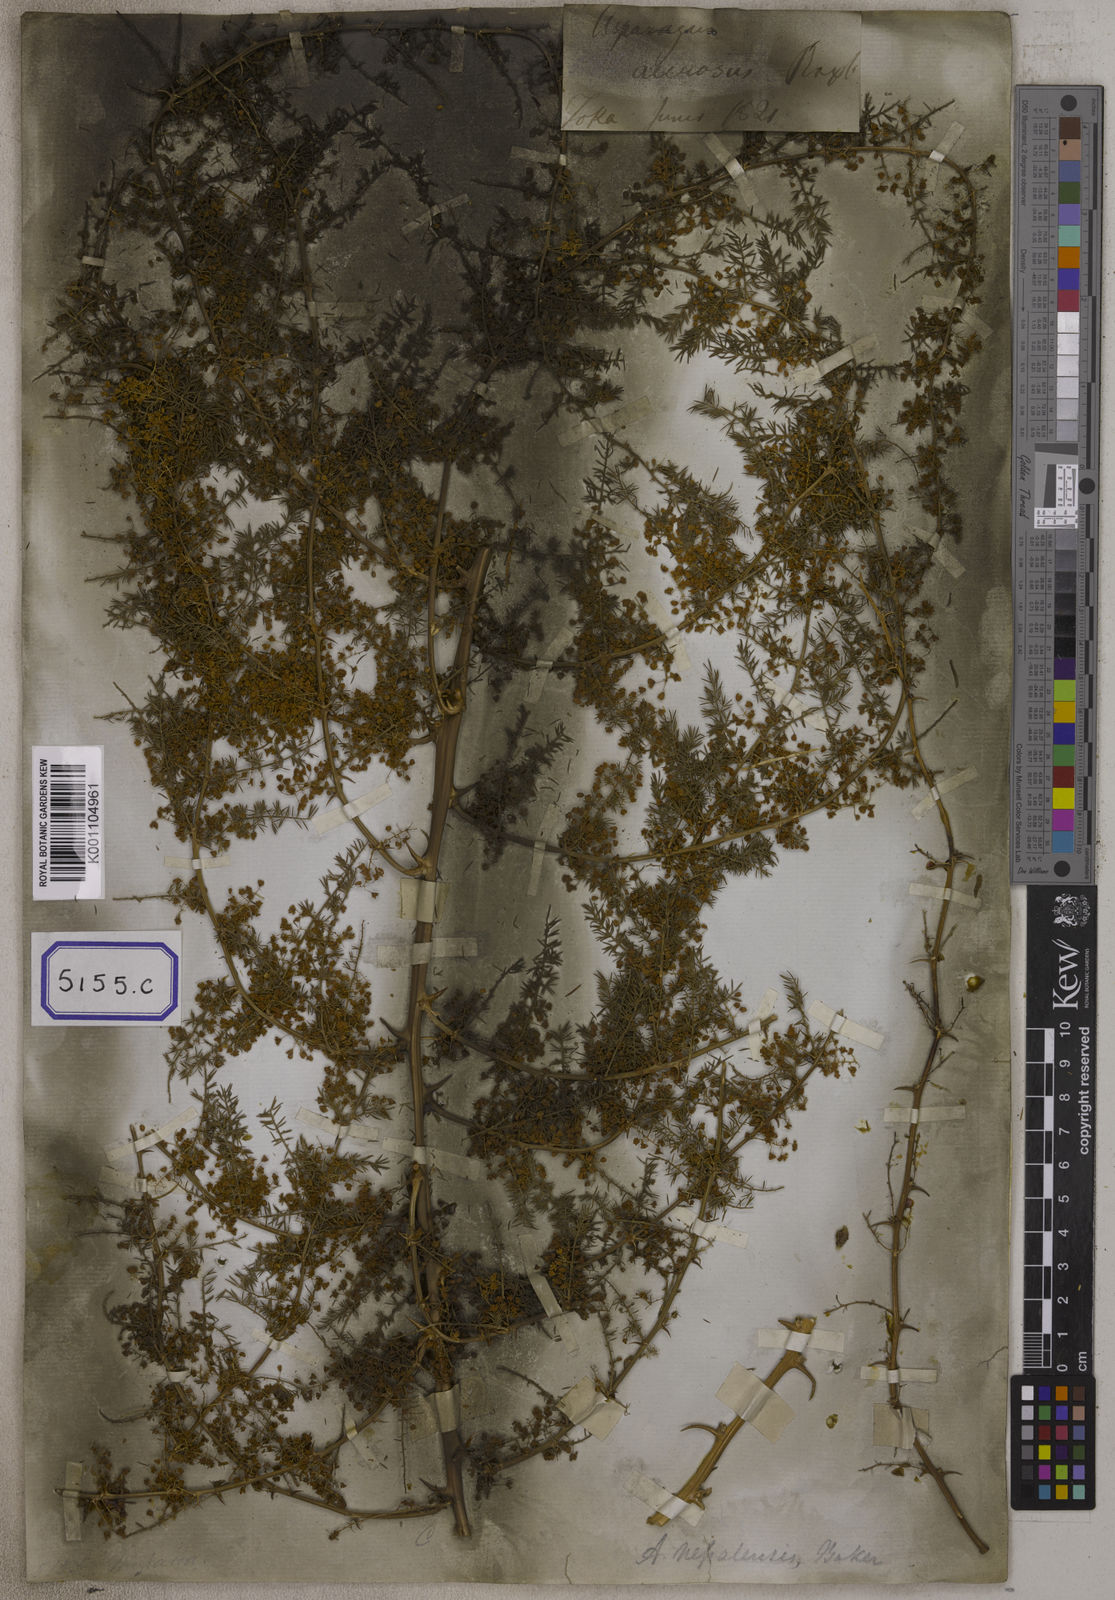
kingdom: Plantae
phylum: Tracheophyta
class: Liliopsida
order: Asparagales
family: Asparagaceae
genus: Asparagus
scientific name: Asparagus
